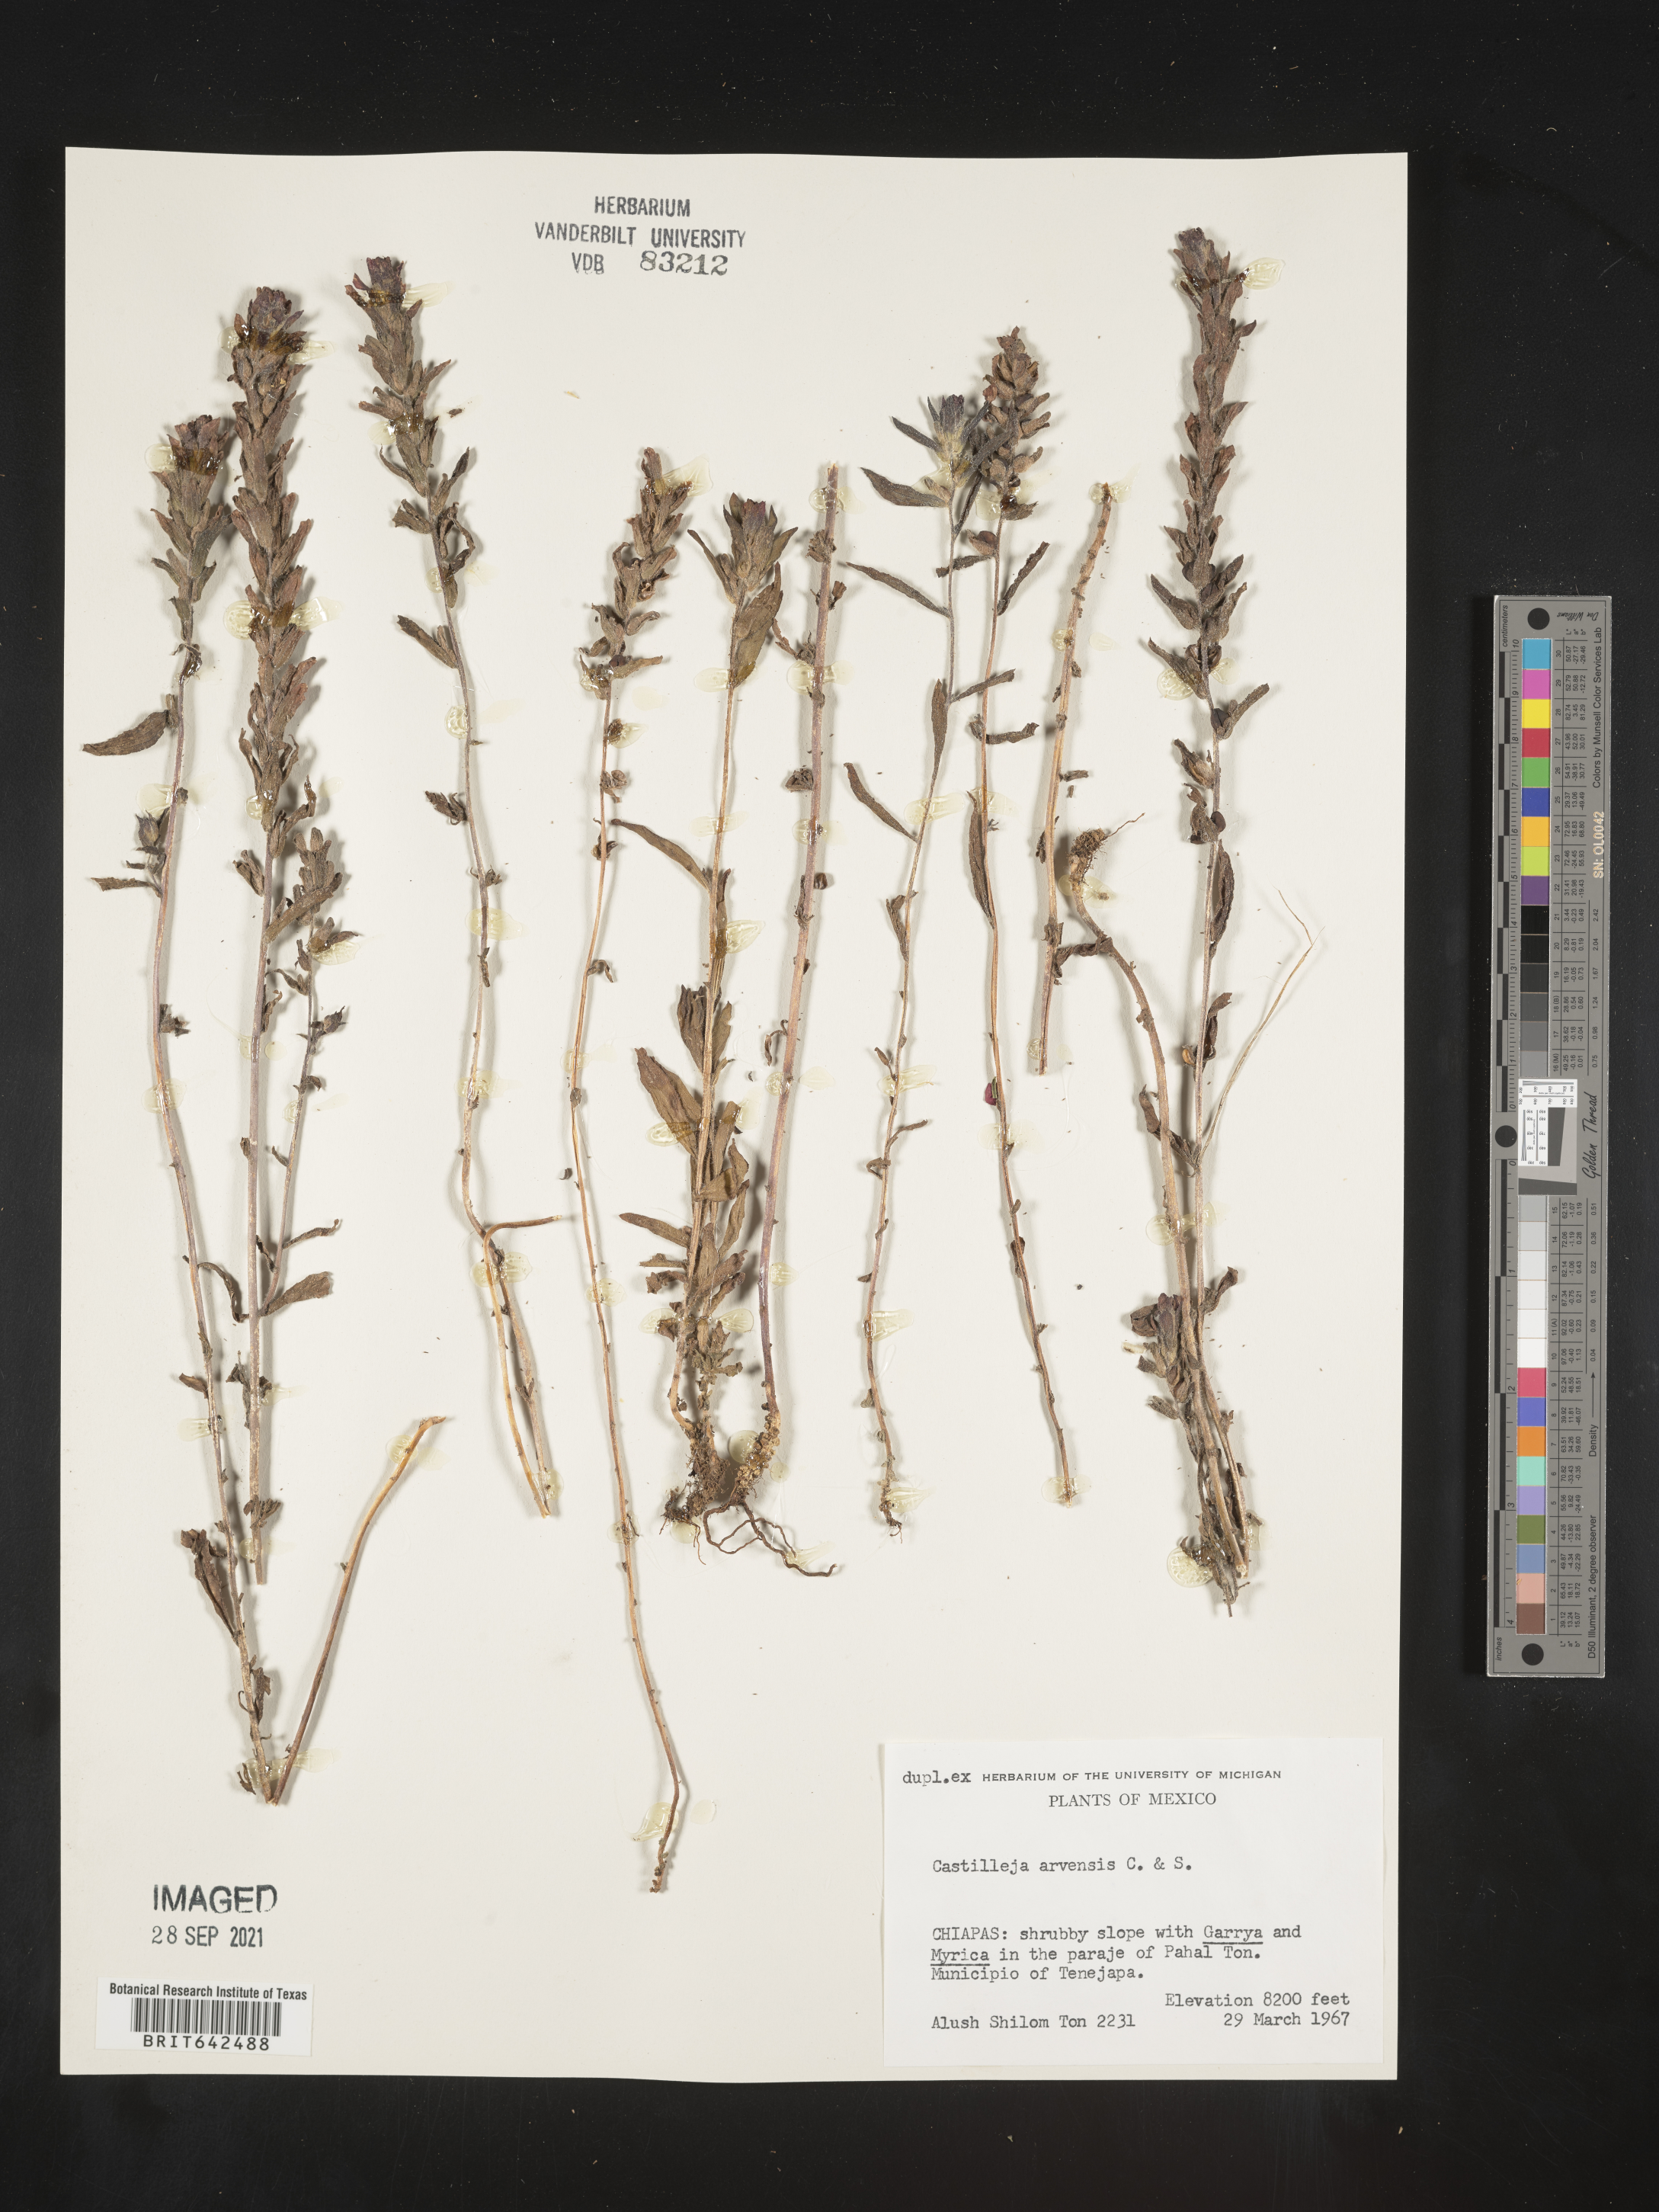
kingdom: Plantae
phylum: Tracheophyta
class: Magnoliopsida
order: Lamiales
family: Orobanchaceae
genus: Castilleja
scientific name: Castilleja
